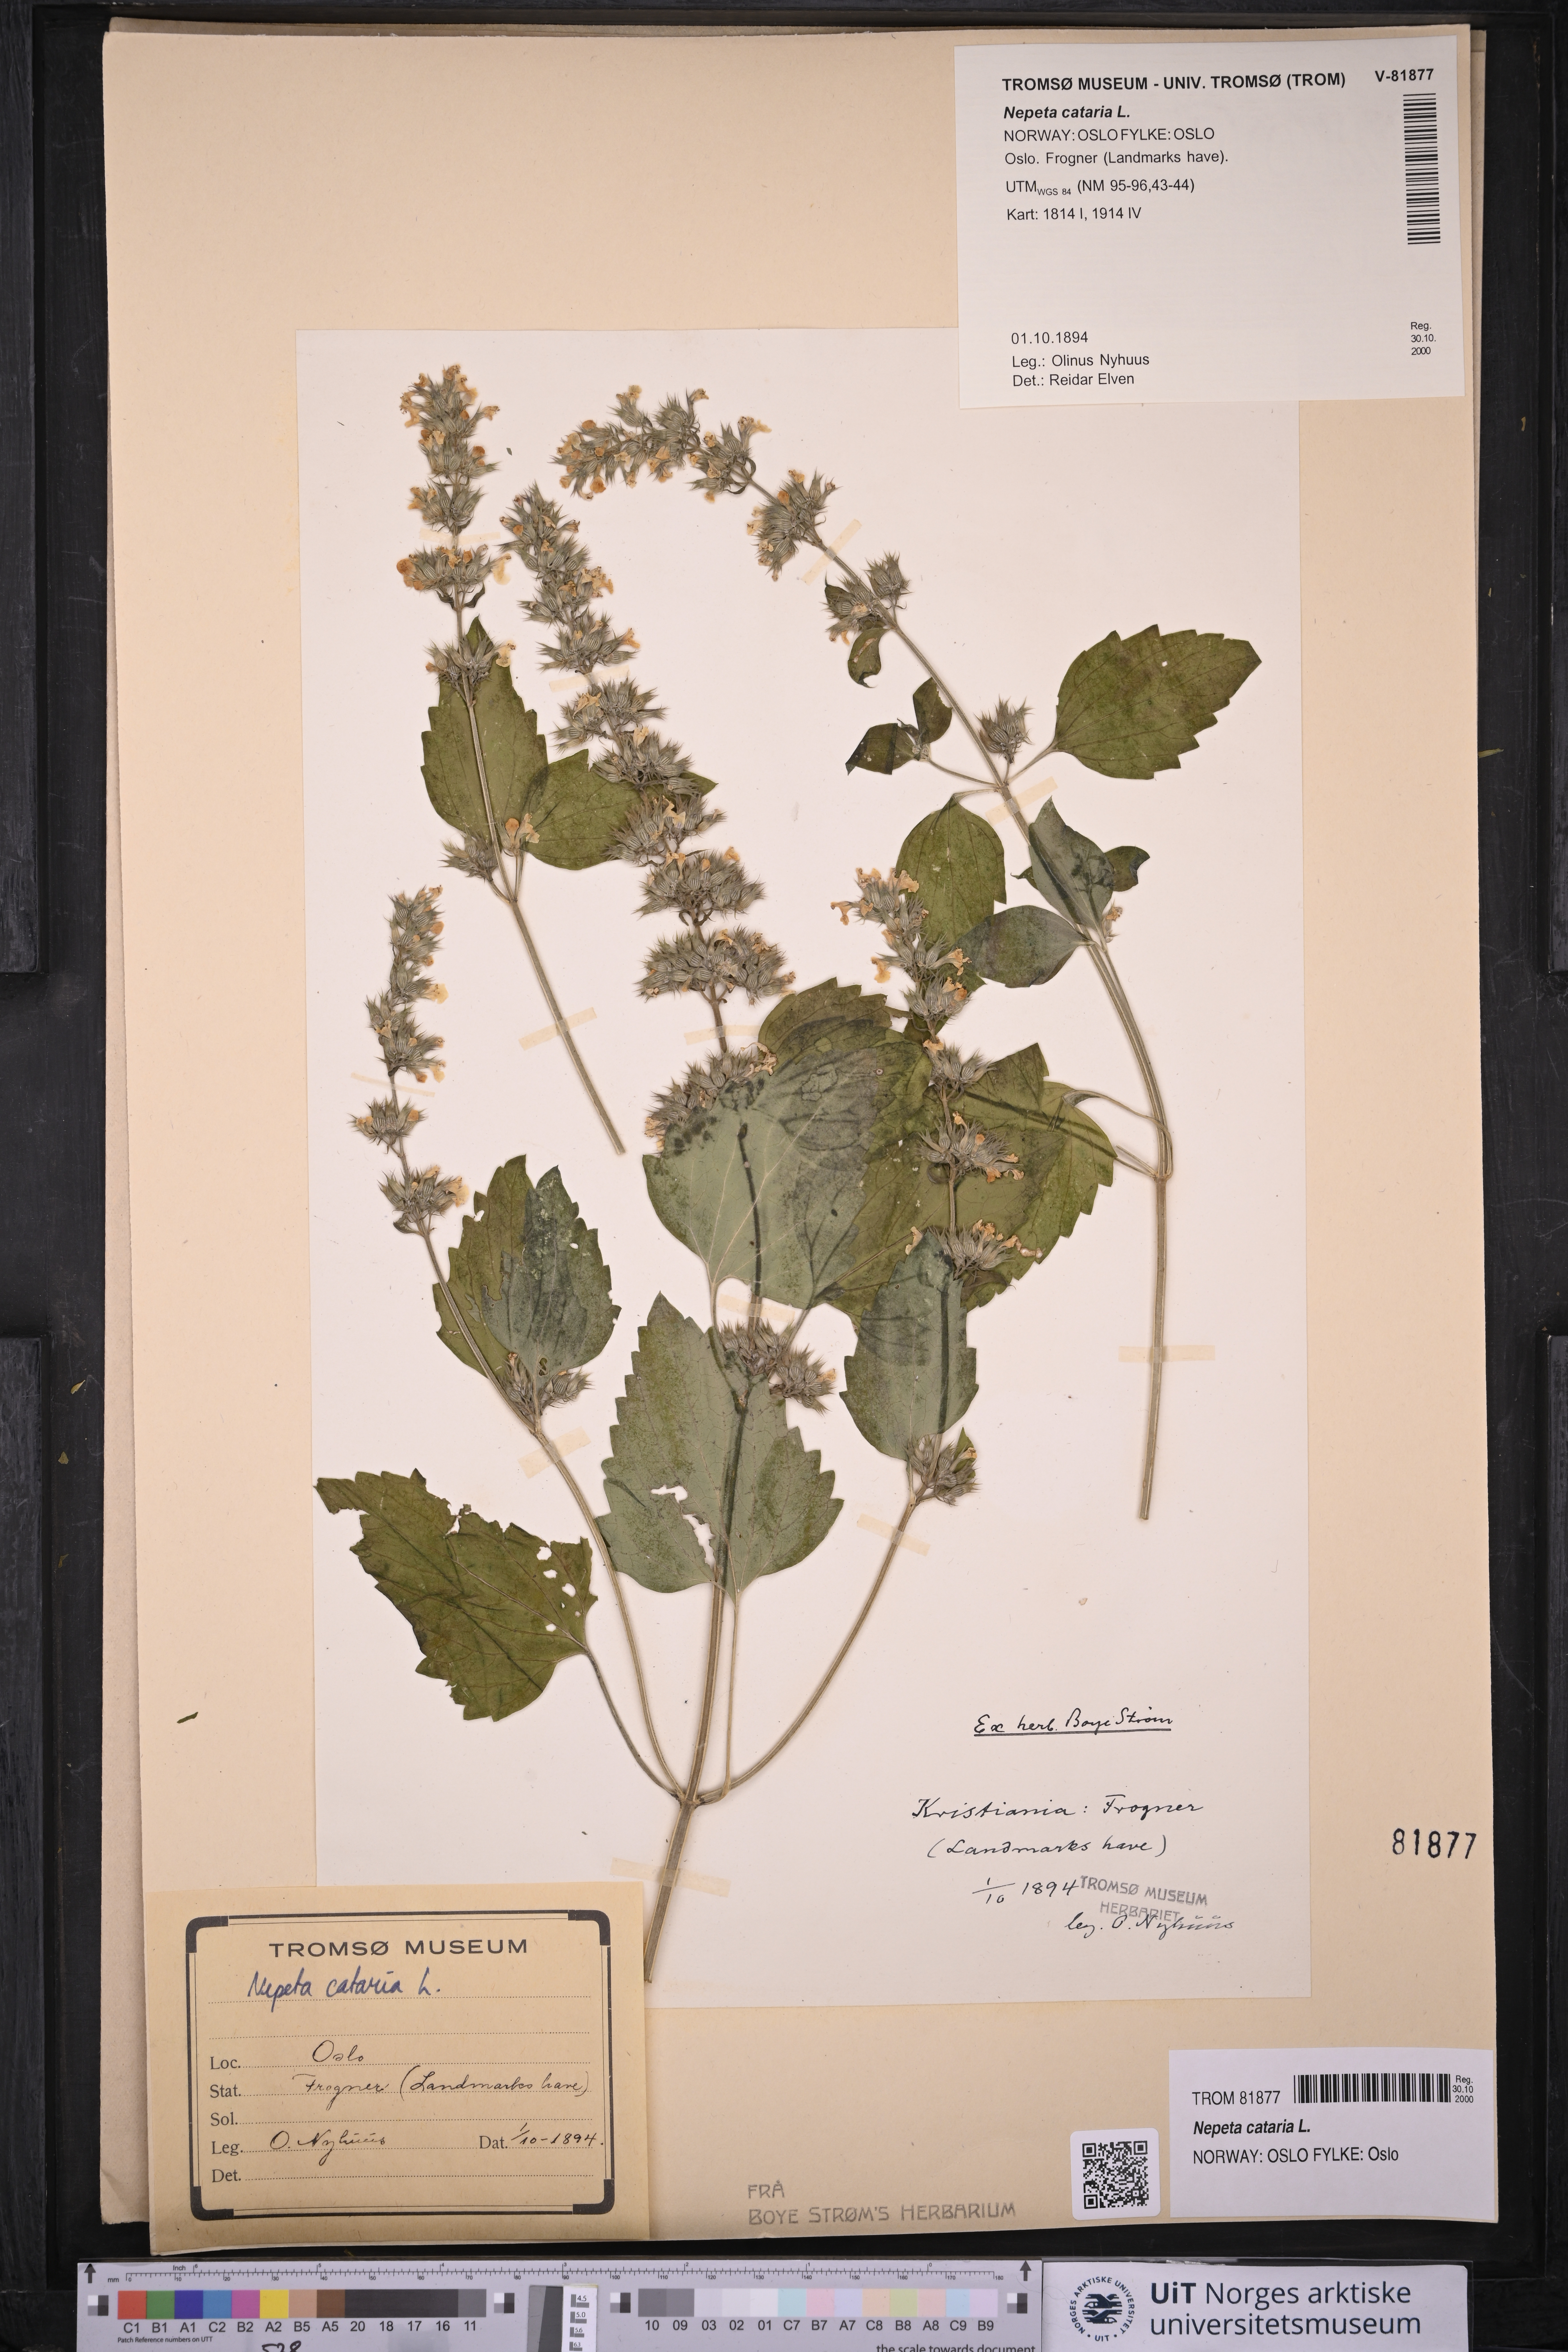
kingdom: Plantae
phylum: Tracheophyta
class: Magnoliopsida
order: Lamiales
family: Lamiaceae
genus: Nepeta
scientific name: Nepeta cataria
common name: Catnip
